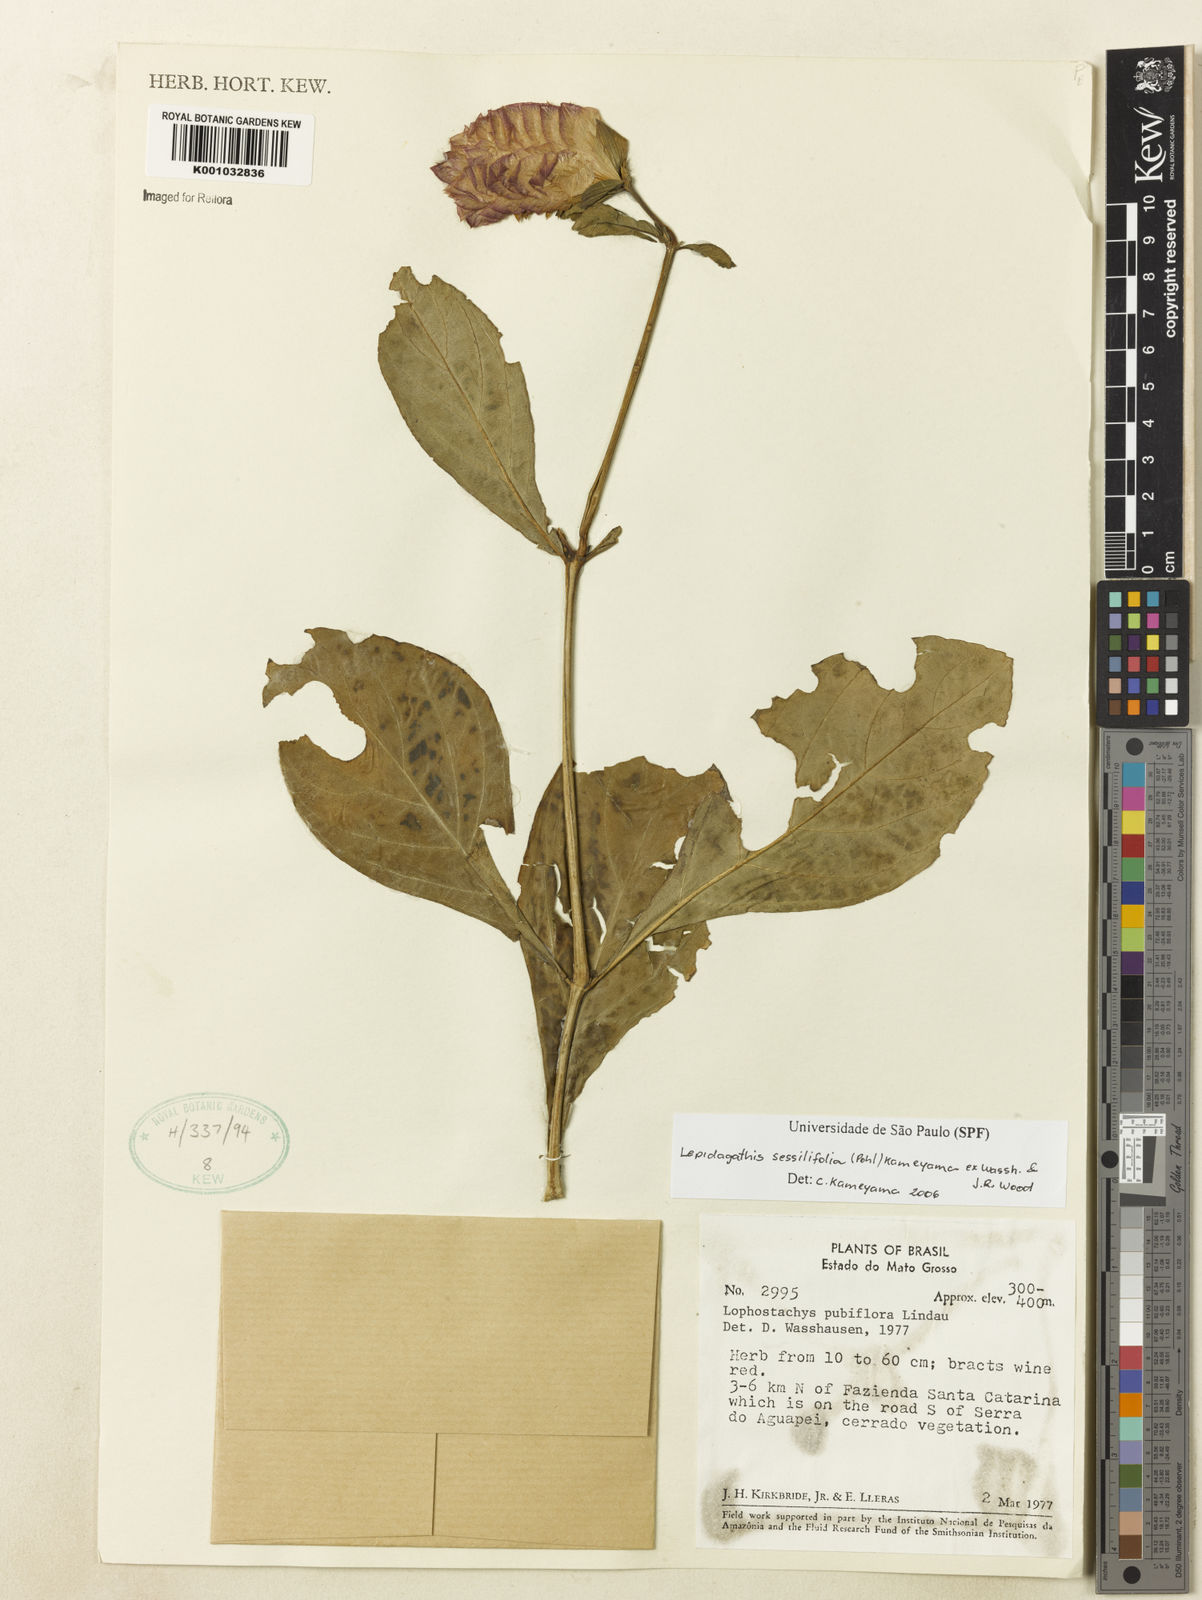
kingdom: Plantae
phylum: Tracheophyta
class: Magnoliopsida
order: Lamiales
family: Acanthaceae
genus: Lepidagathis
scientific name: Lepidagathis sessilifolia
